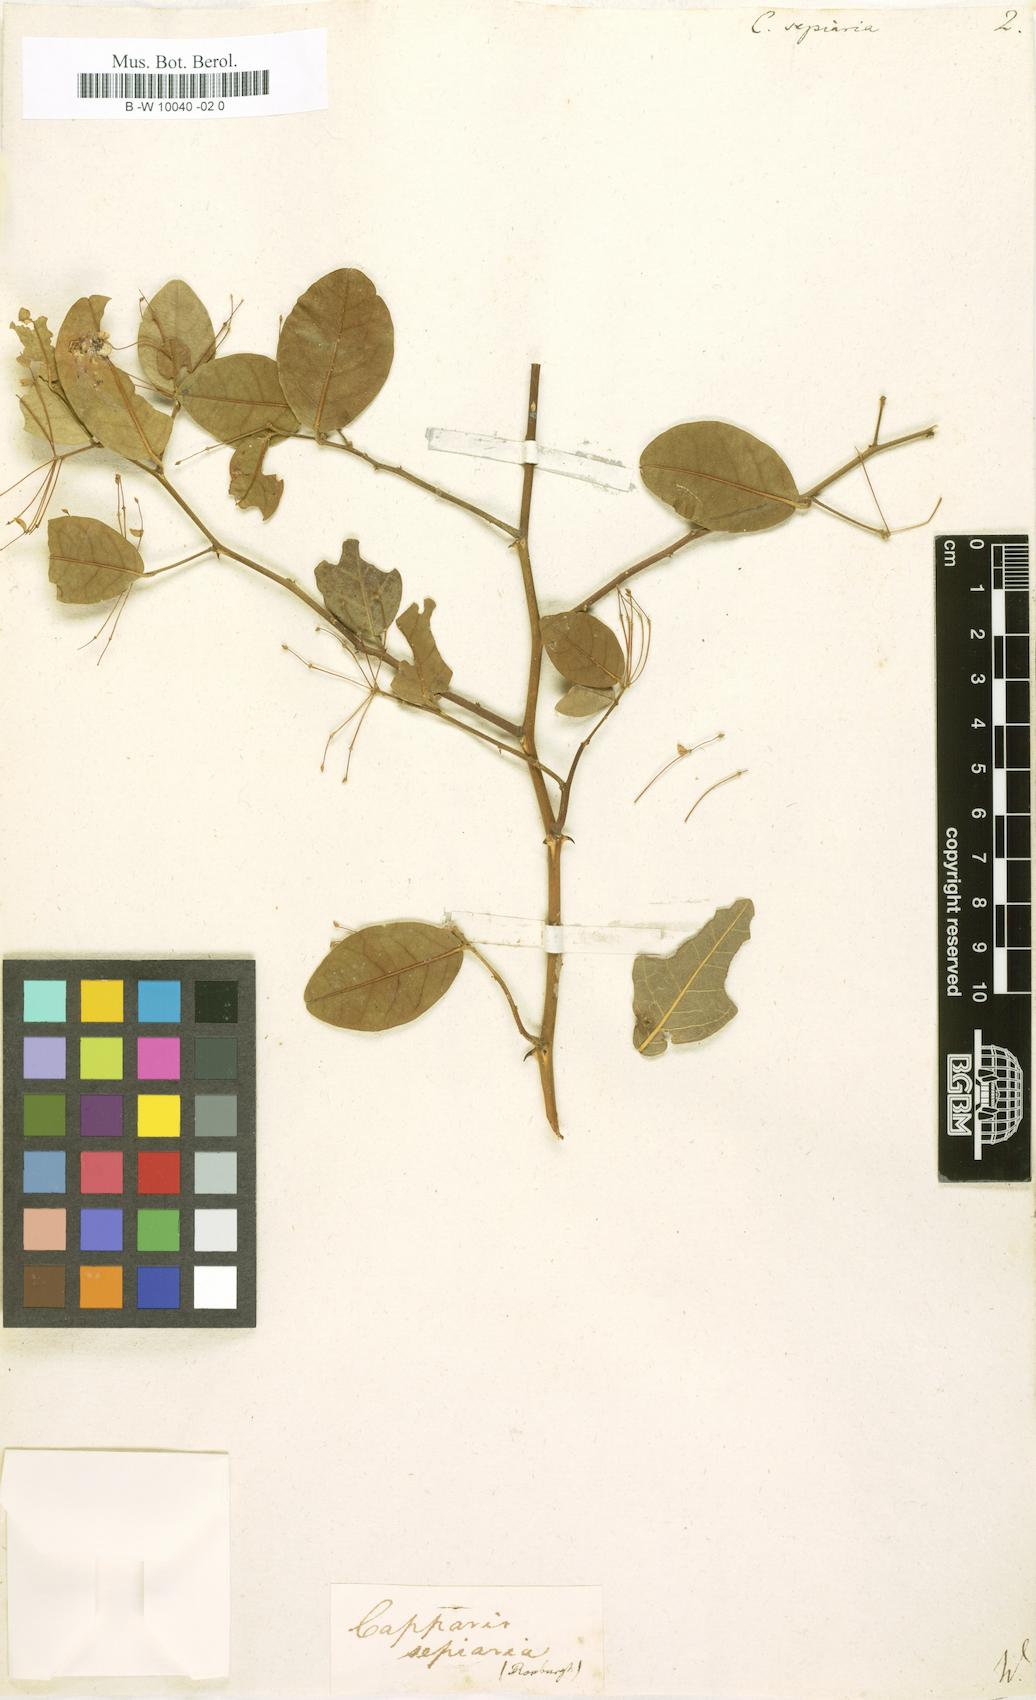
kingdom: Plantae
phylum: Tracheophyta
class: Magnoliopsida
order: Brassicales
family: Capparaceae
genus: Capparis
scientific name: Capparis sepiaria
